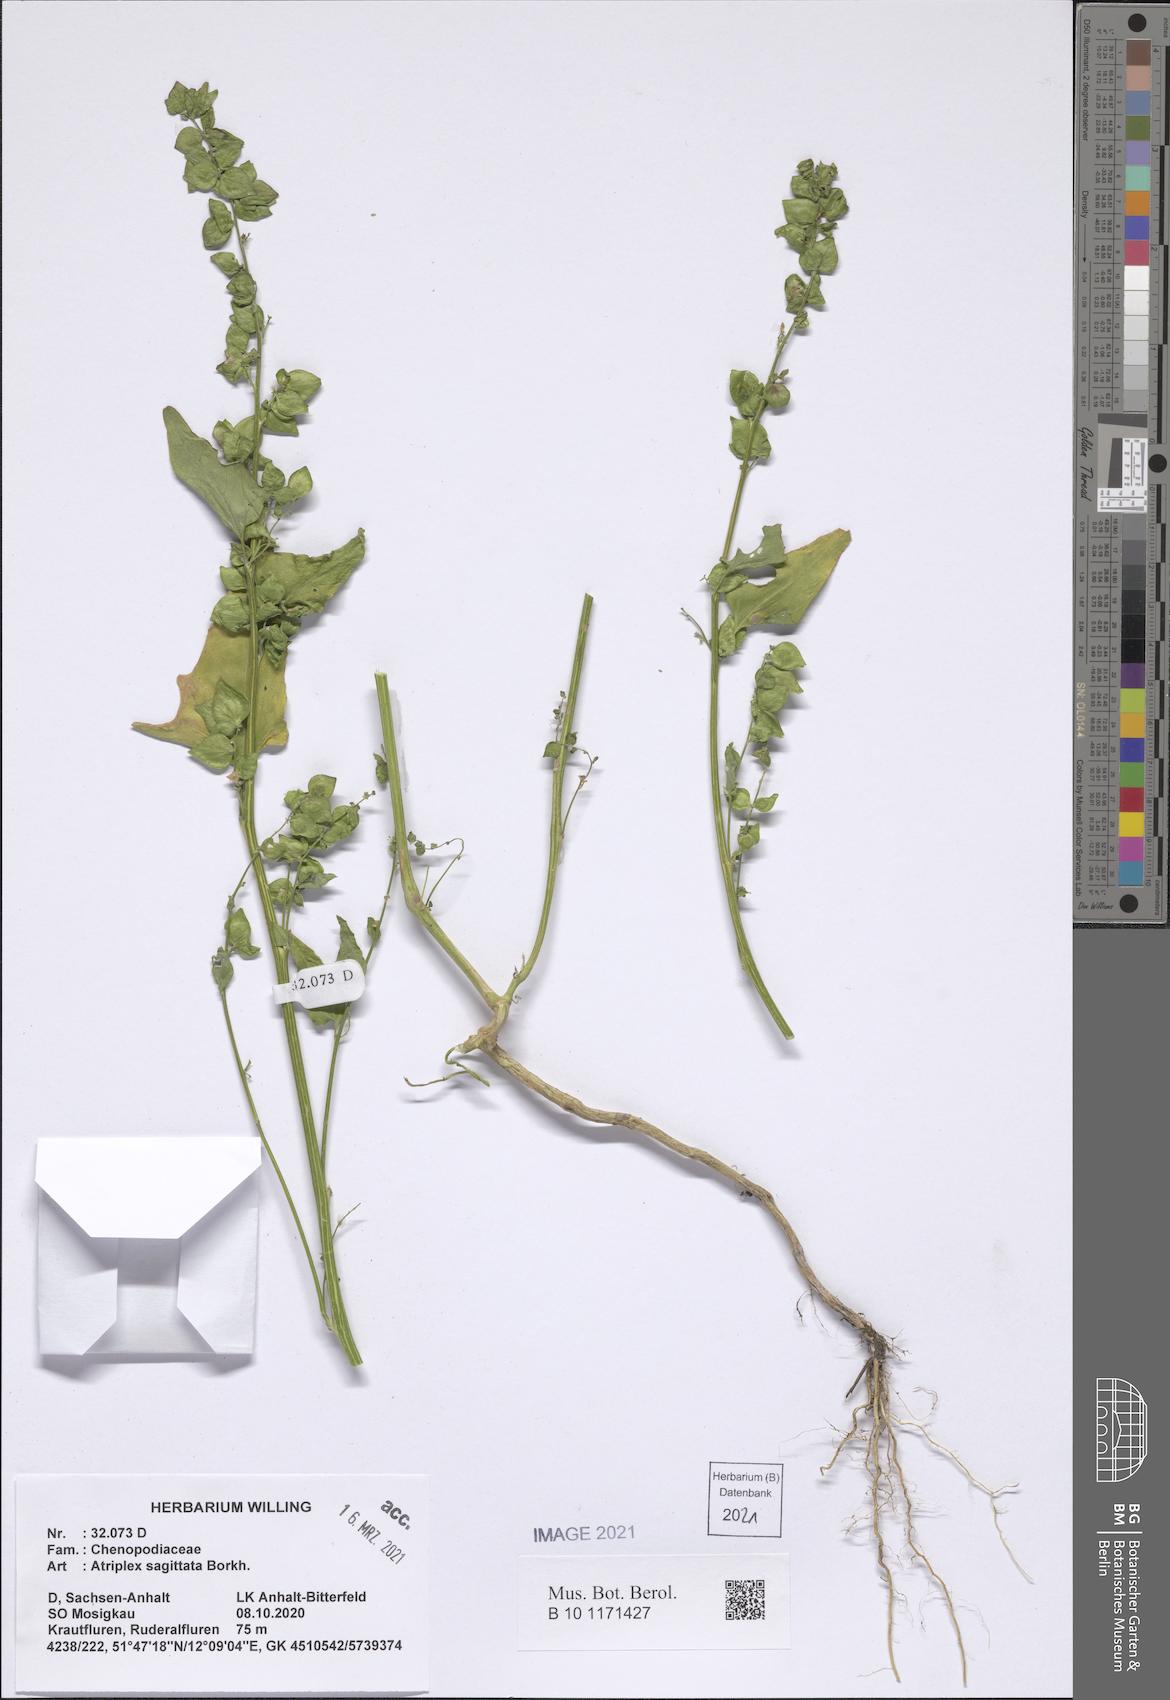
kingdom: Plantae
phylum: Tracheophyta
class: Magnoliopsida
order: Caryophyllales
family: Amaranthaceae
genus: Atriplex
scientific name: Atriplex sagittata
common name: Purple orache
